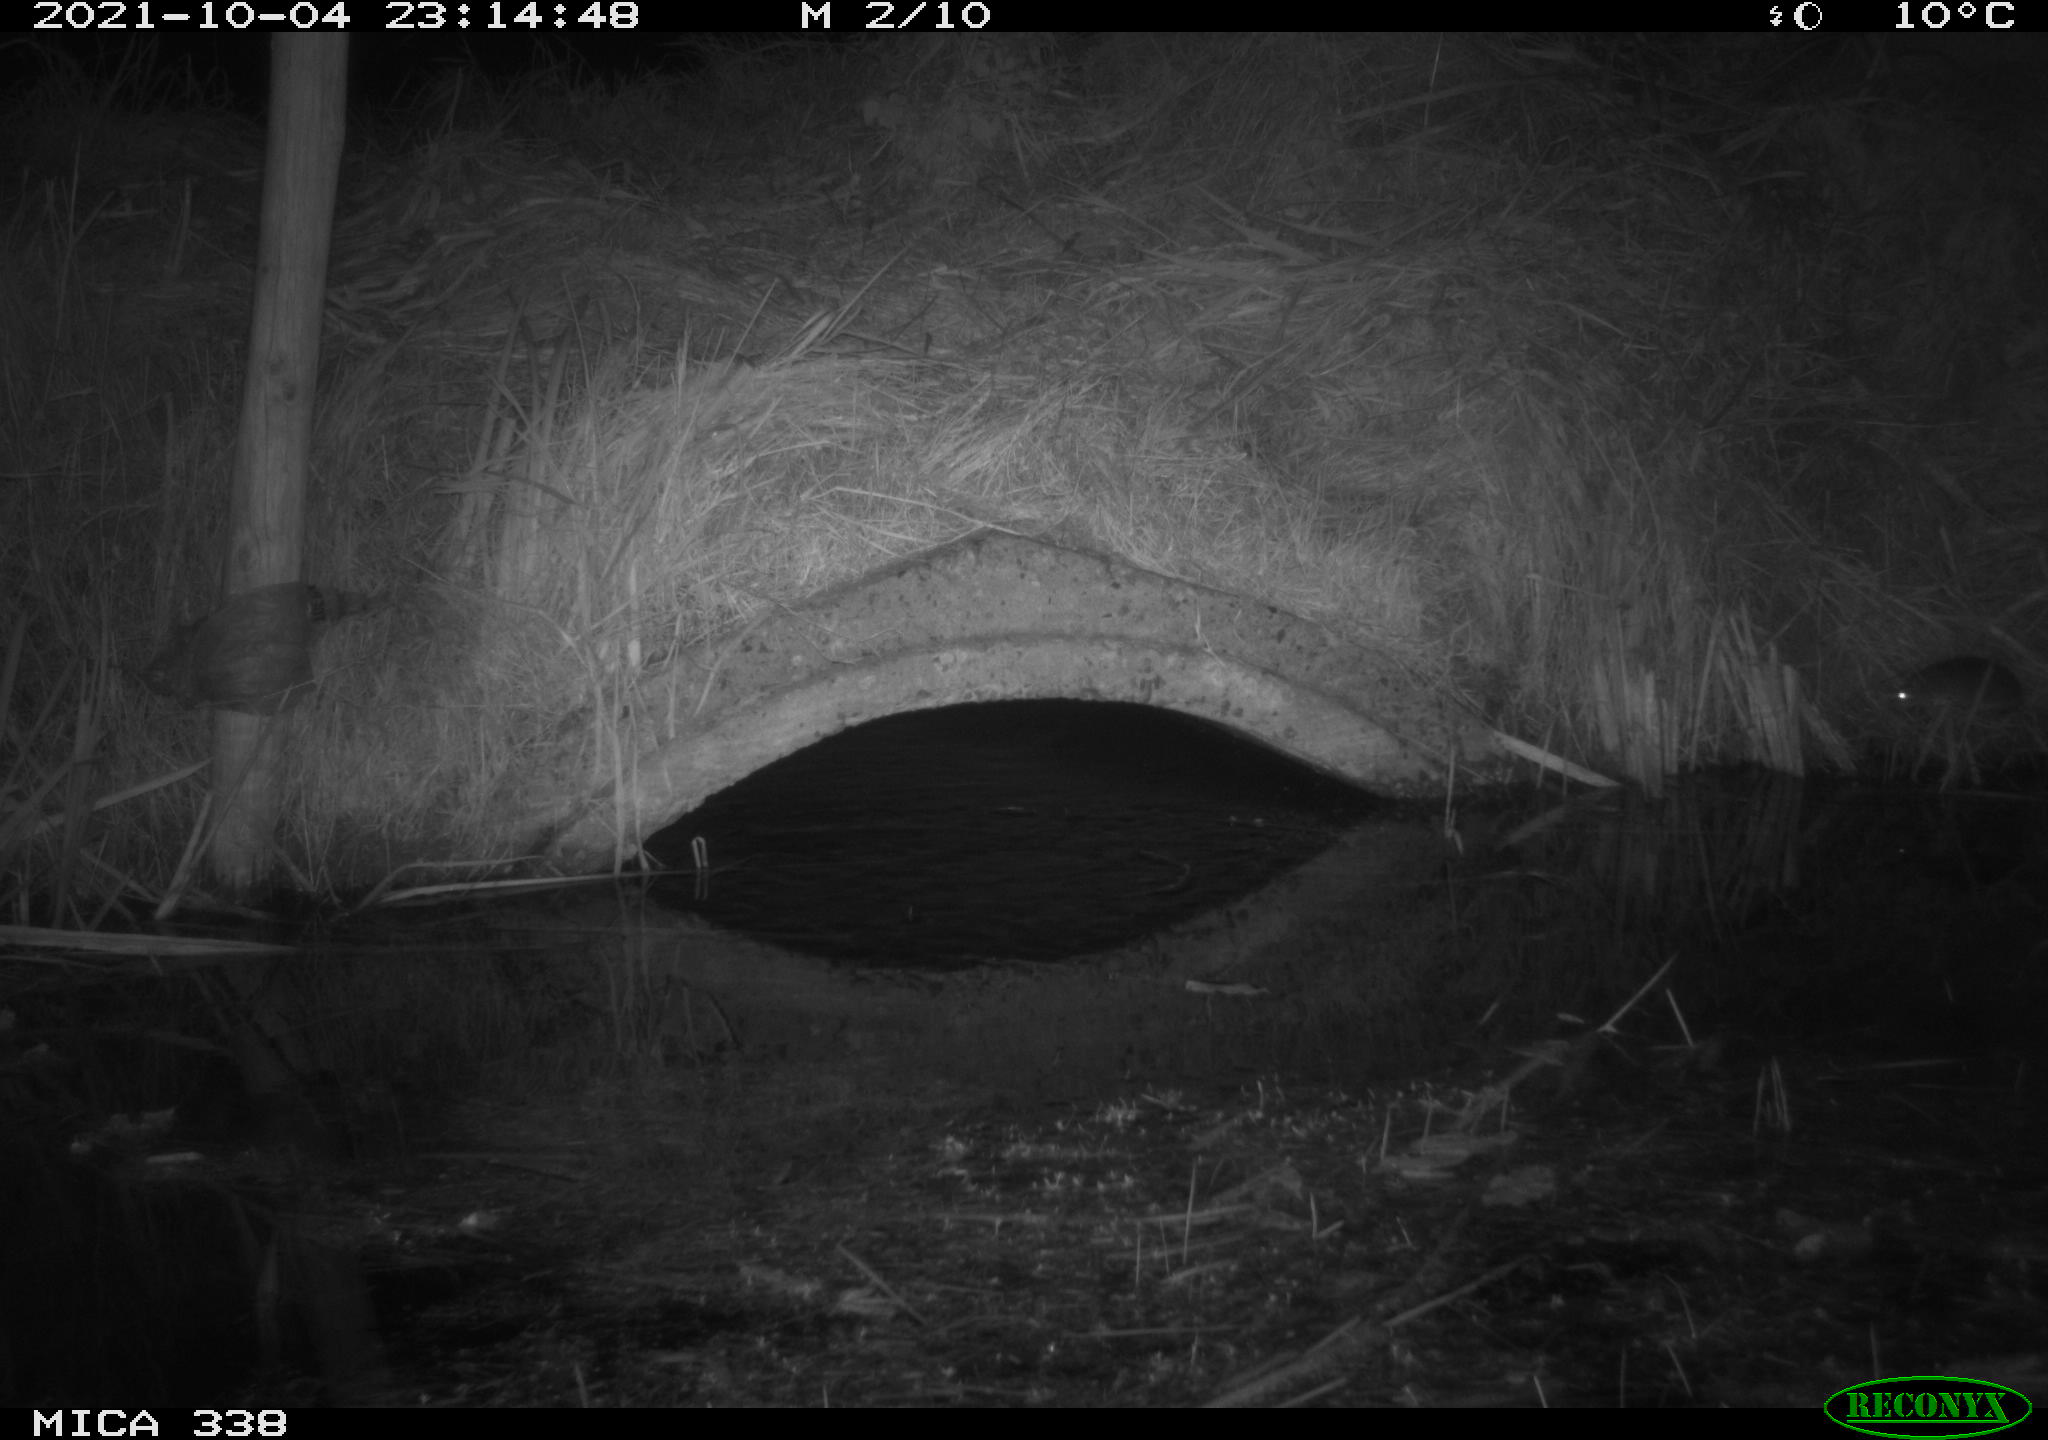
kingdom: Animalia
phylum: Chordata
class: Mammalia
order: Rodentia
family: Muridae
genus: Rattus
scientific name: Rattus norvegicus
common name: Brown rat
